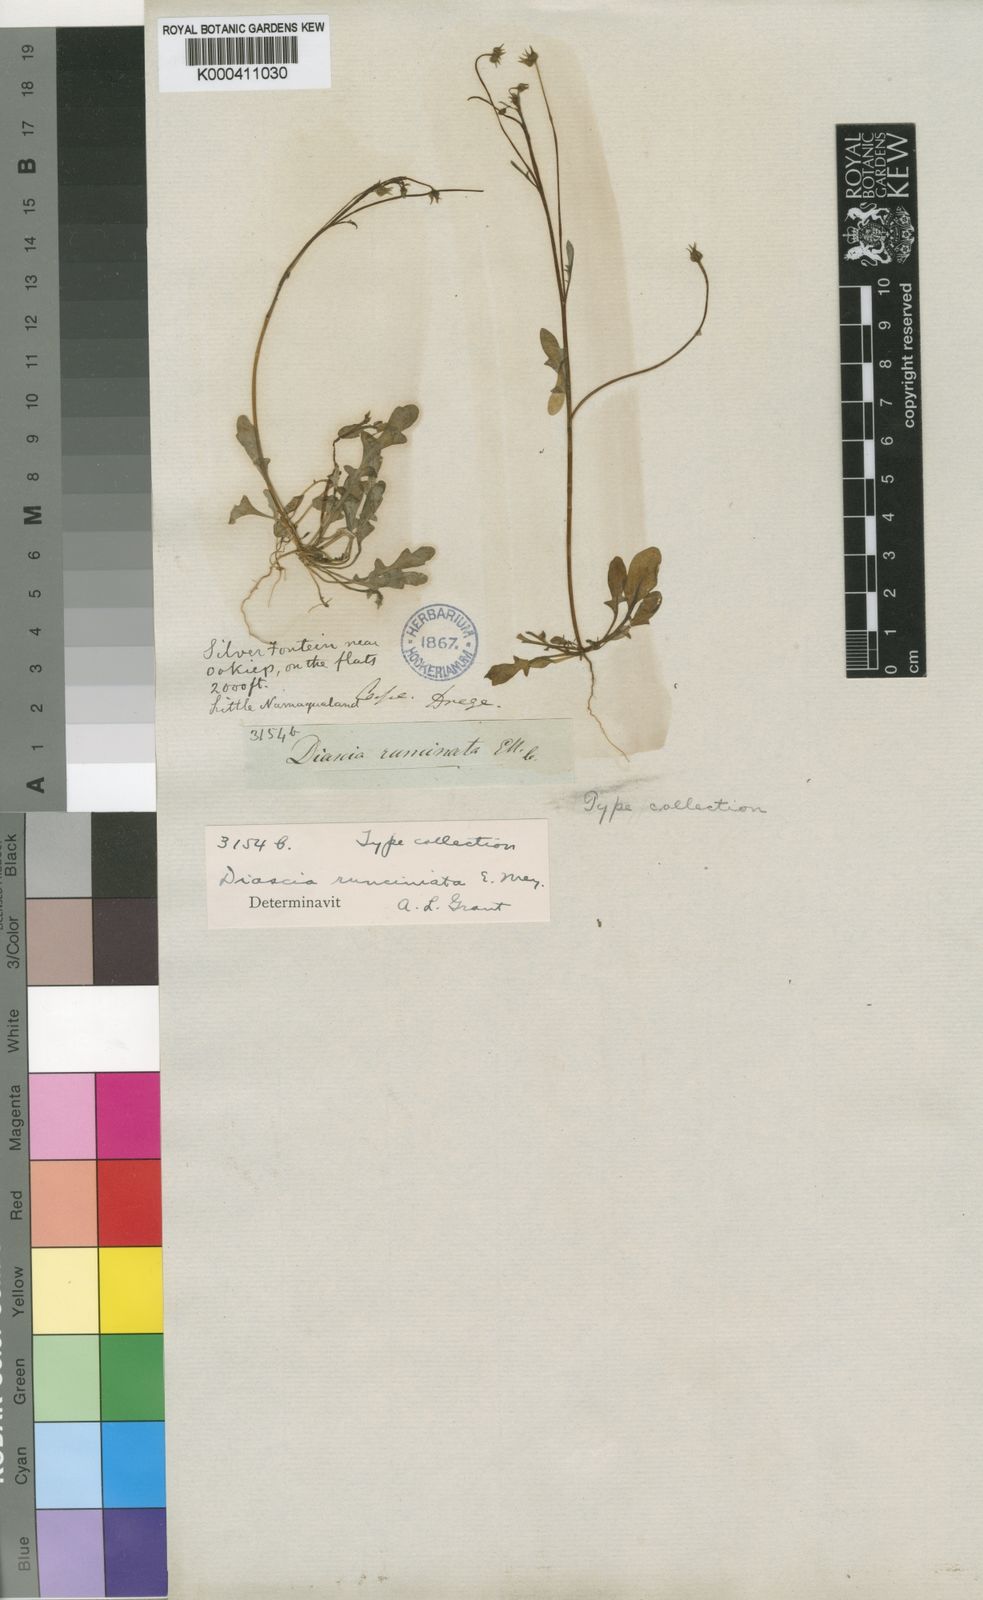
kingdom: Plantae
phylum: Tracheophyta
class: Magnoliopsida
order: Lamiales
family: Scrophulariaceae
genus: Diascia
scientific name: Diascia runcinata
